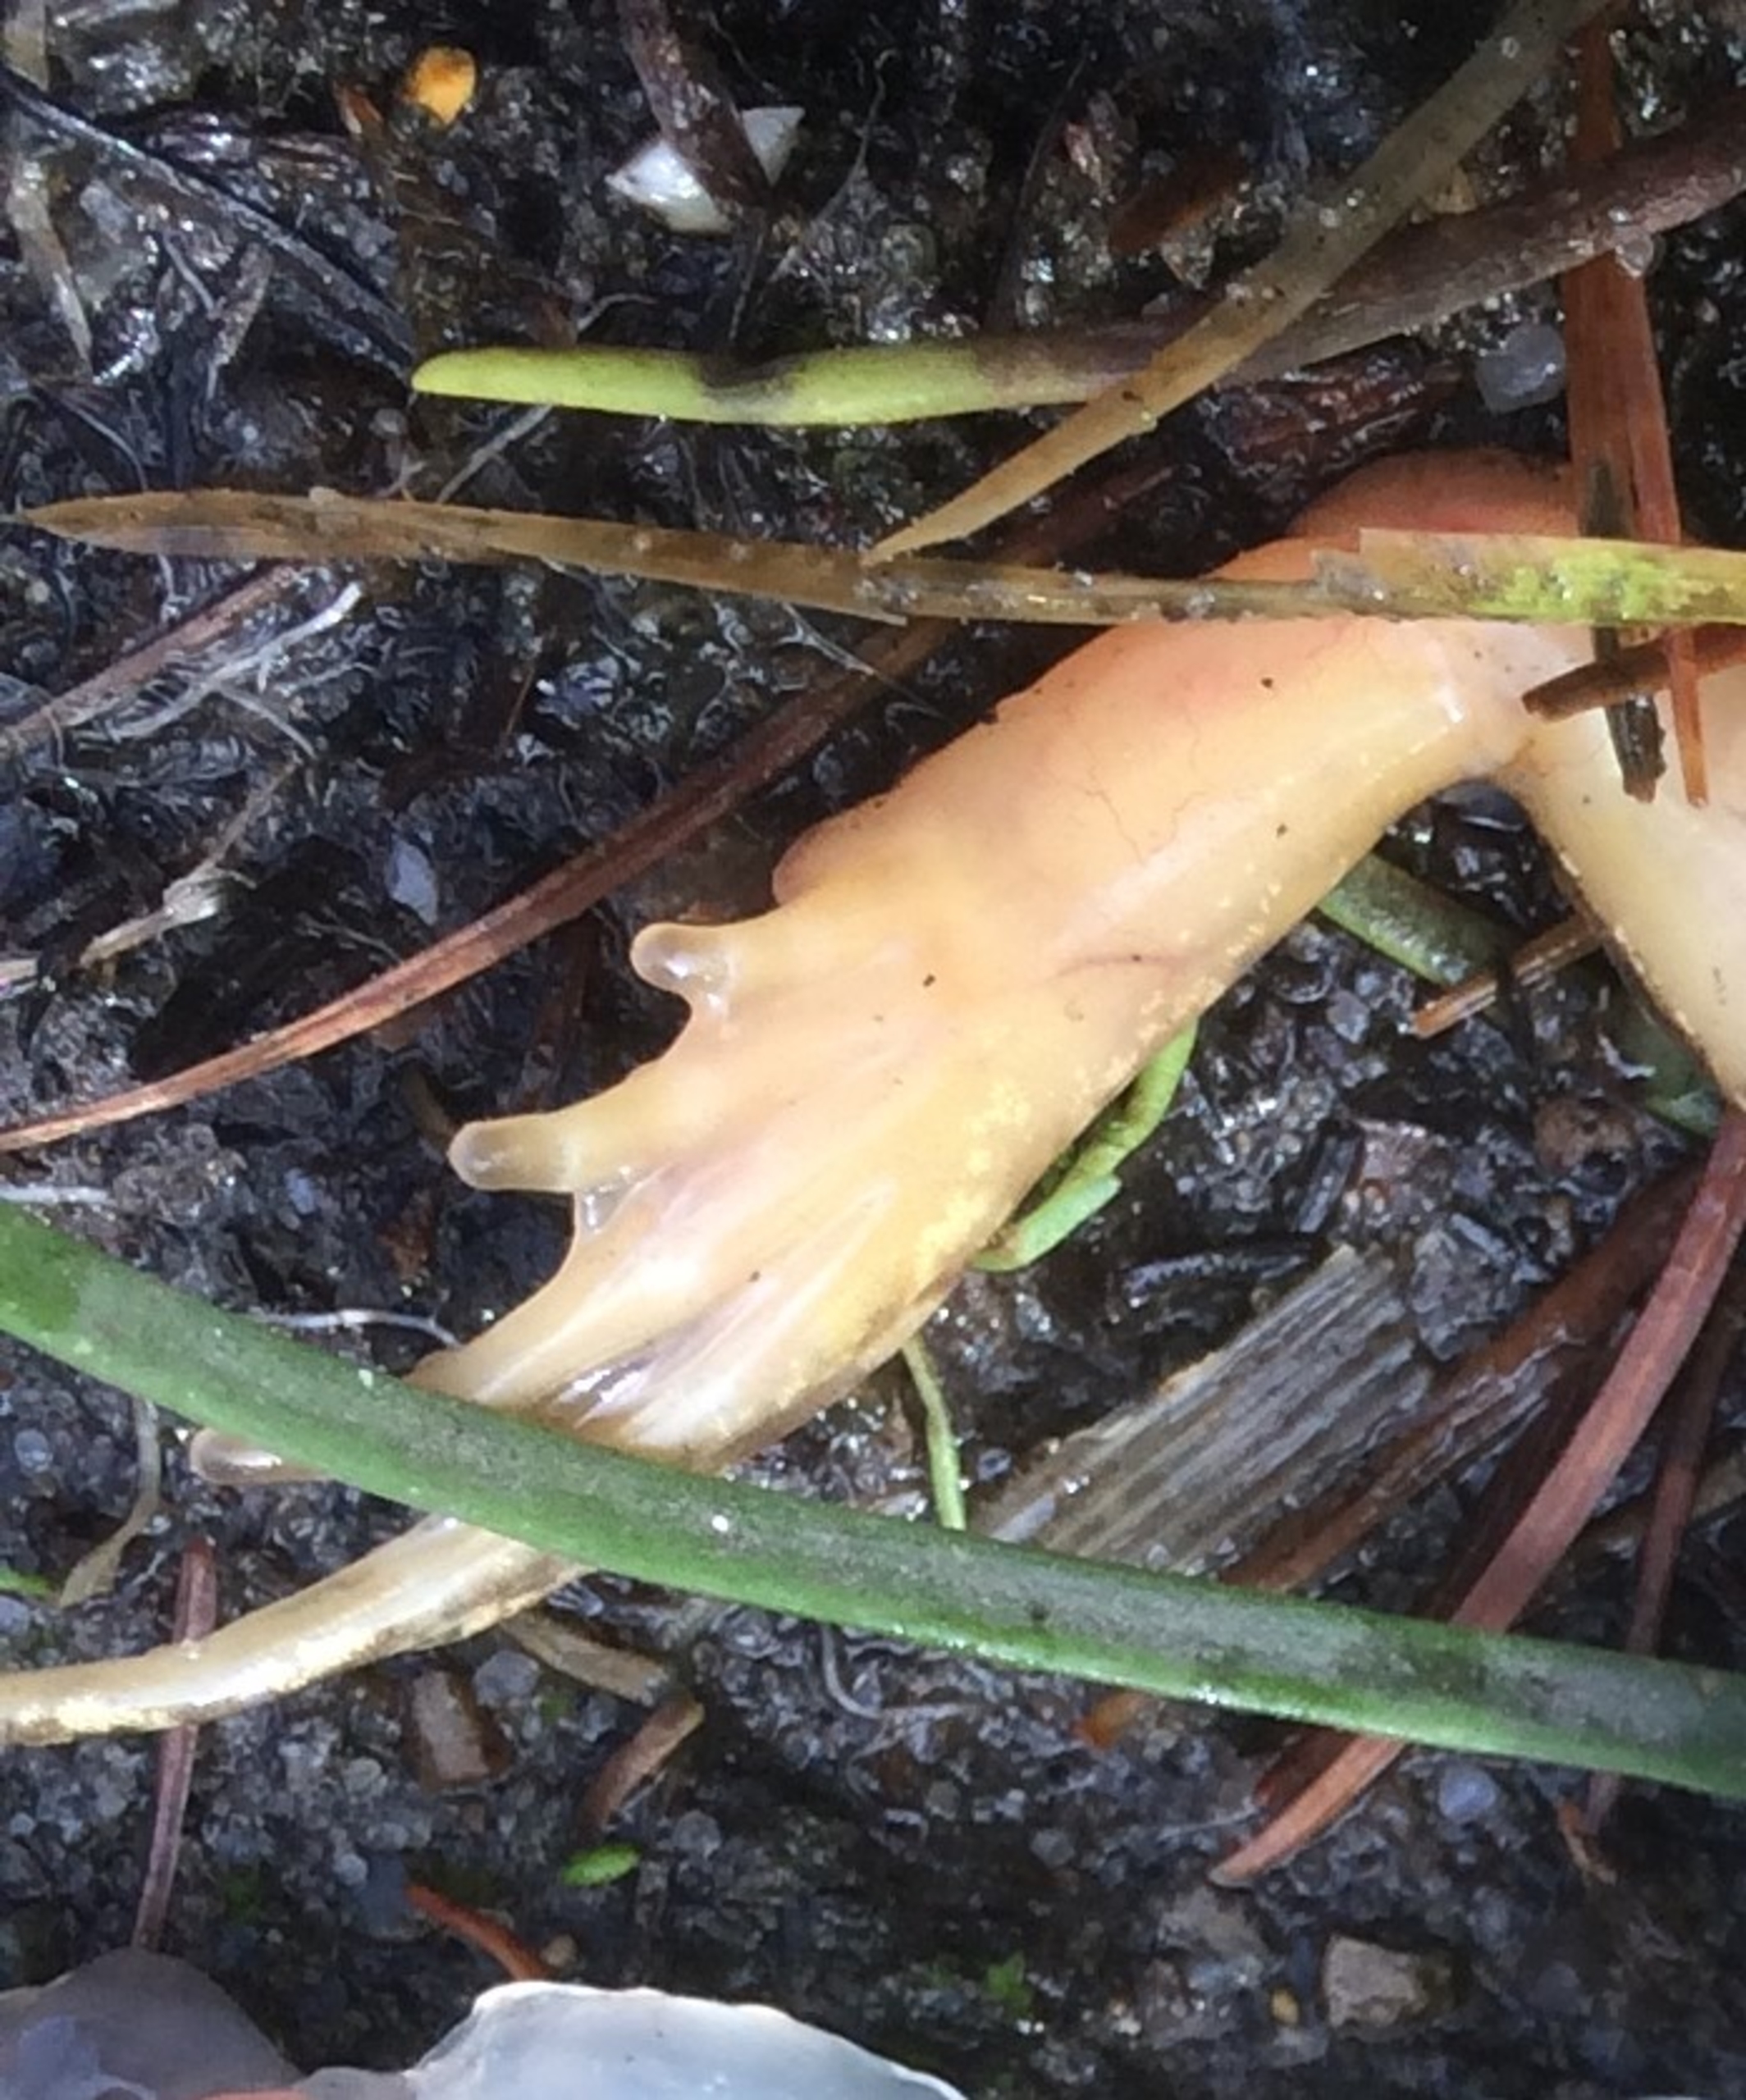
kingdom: Animalia
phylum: Chordata
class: Amphibia
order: Anura
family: Ranidae
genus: Rana
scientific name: Rana arvalis
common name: Spidssnudet frø
